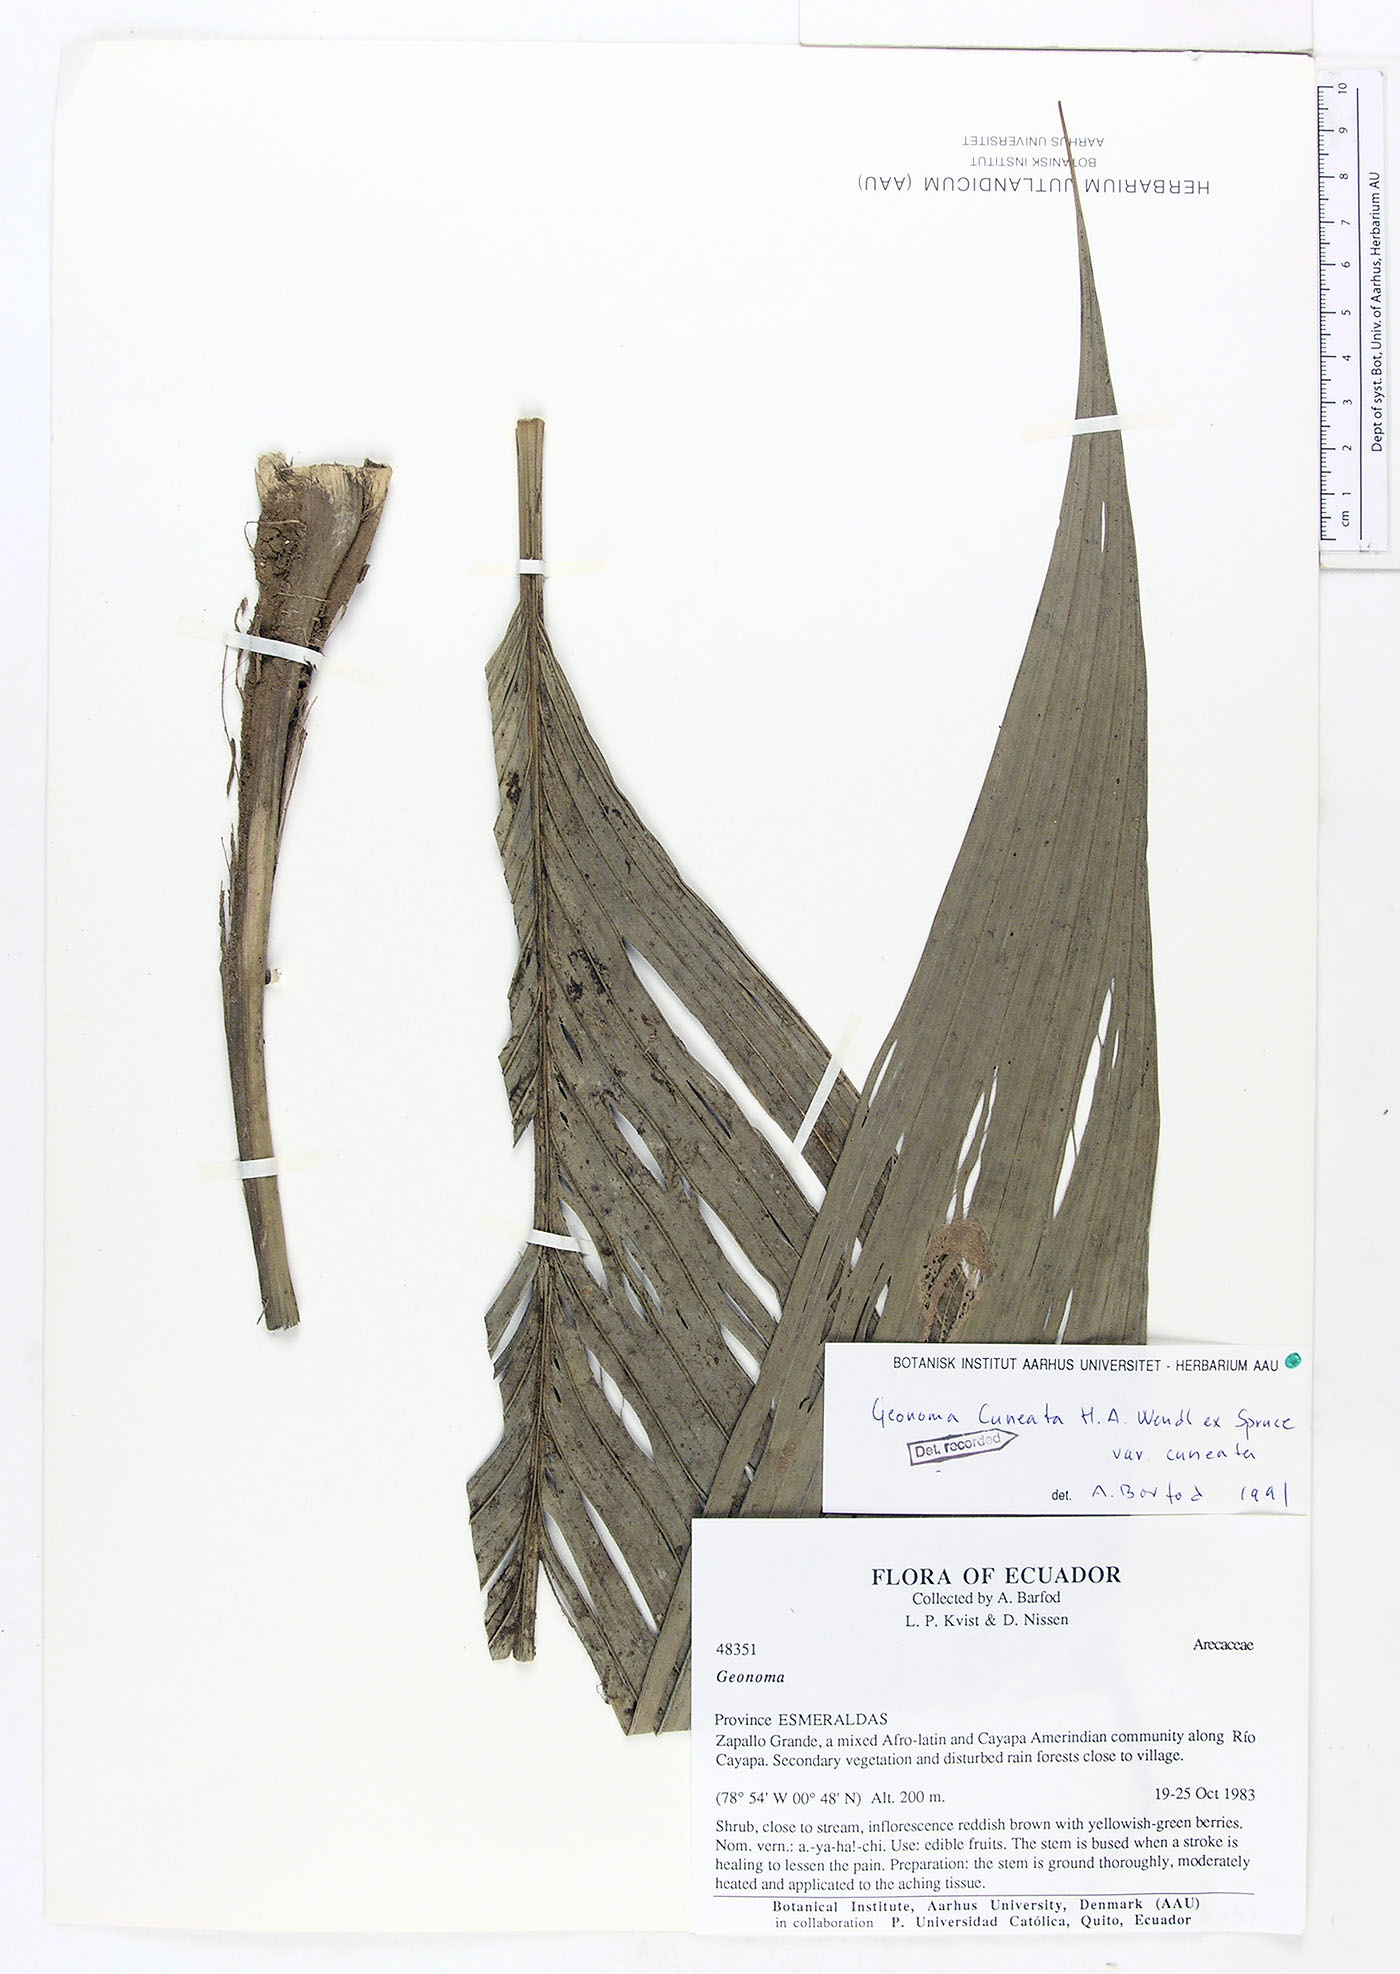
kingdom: Plantae
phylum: Tracheophyta
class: Liliopsida
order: Arecales
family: Arecaceae
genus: Geonoma
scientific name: Geonoma cuneata
